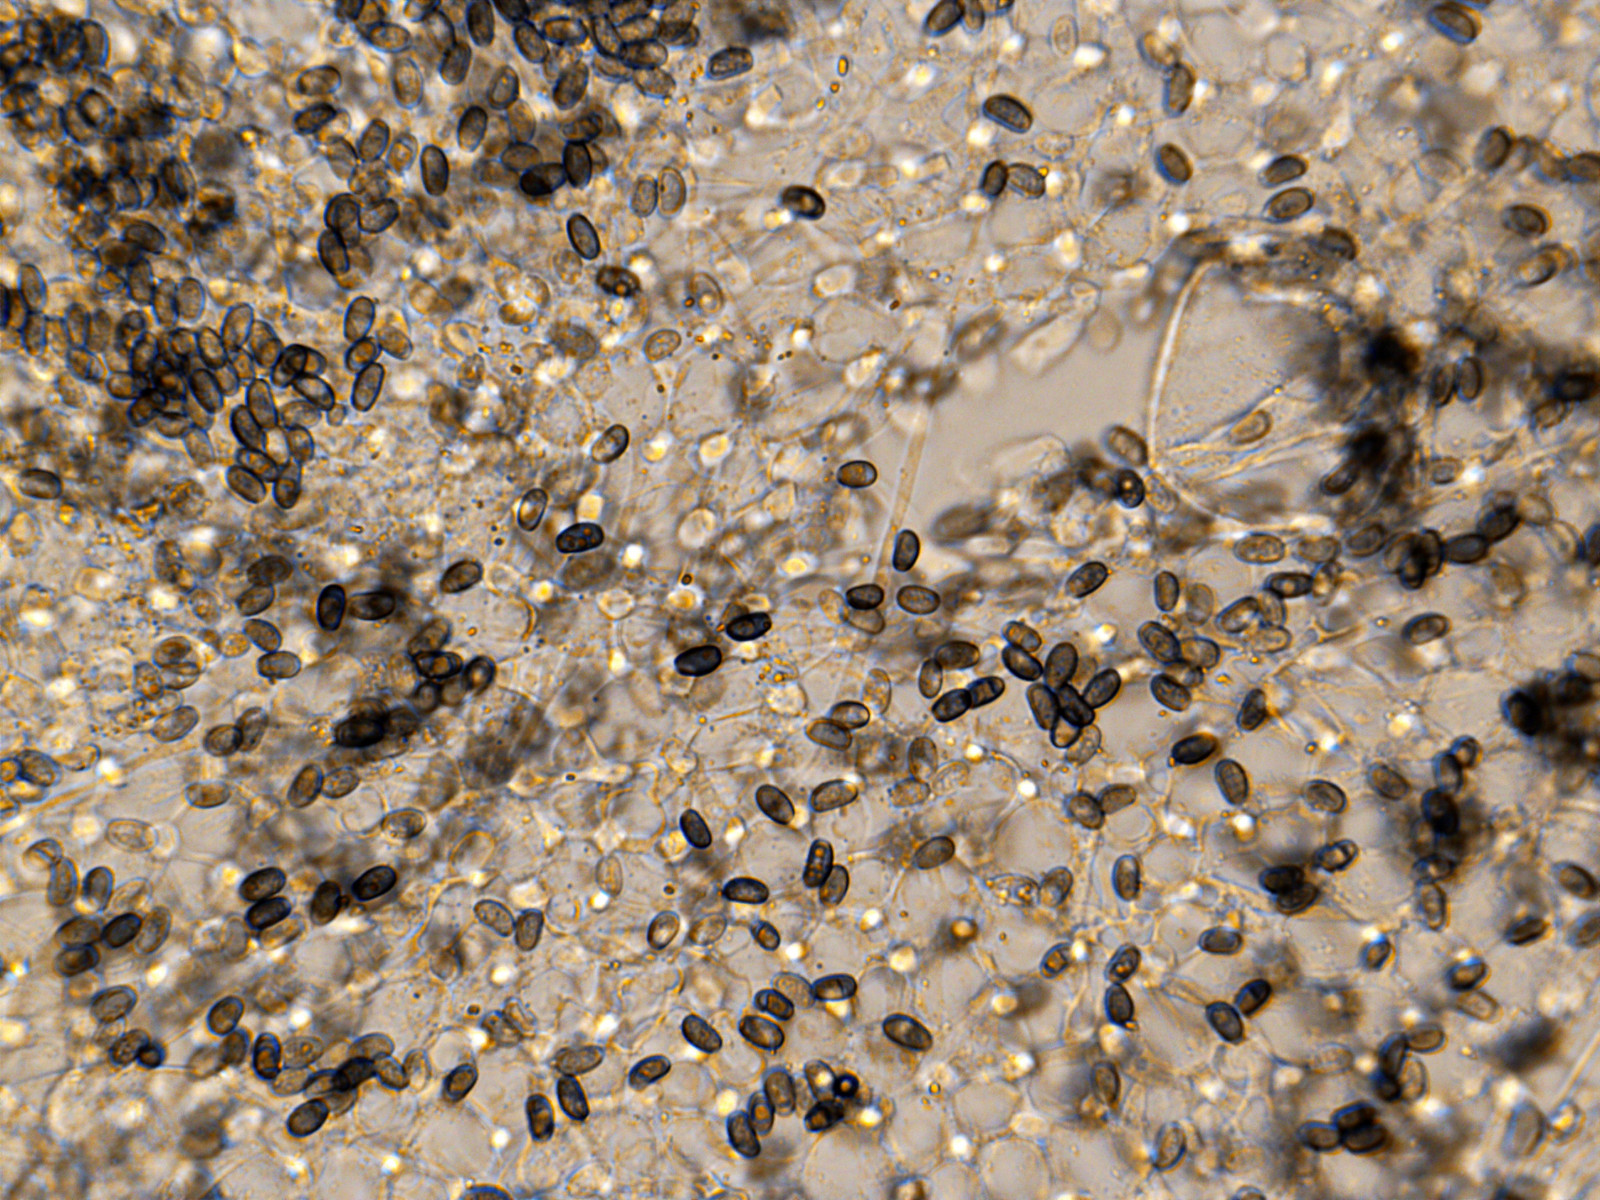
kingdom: Fungi
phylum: Basidiomycota
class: Agaricomycetes
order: Agaricales
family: Psathyrellaceae
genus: Coprinellus
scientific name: Coprinellus domesticus
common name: hus-blækhat
